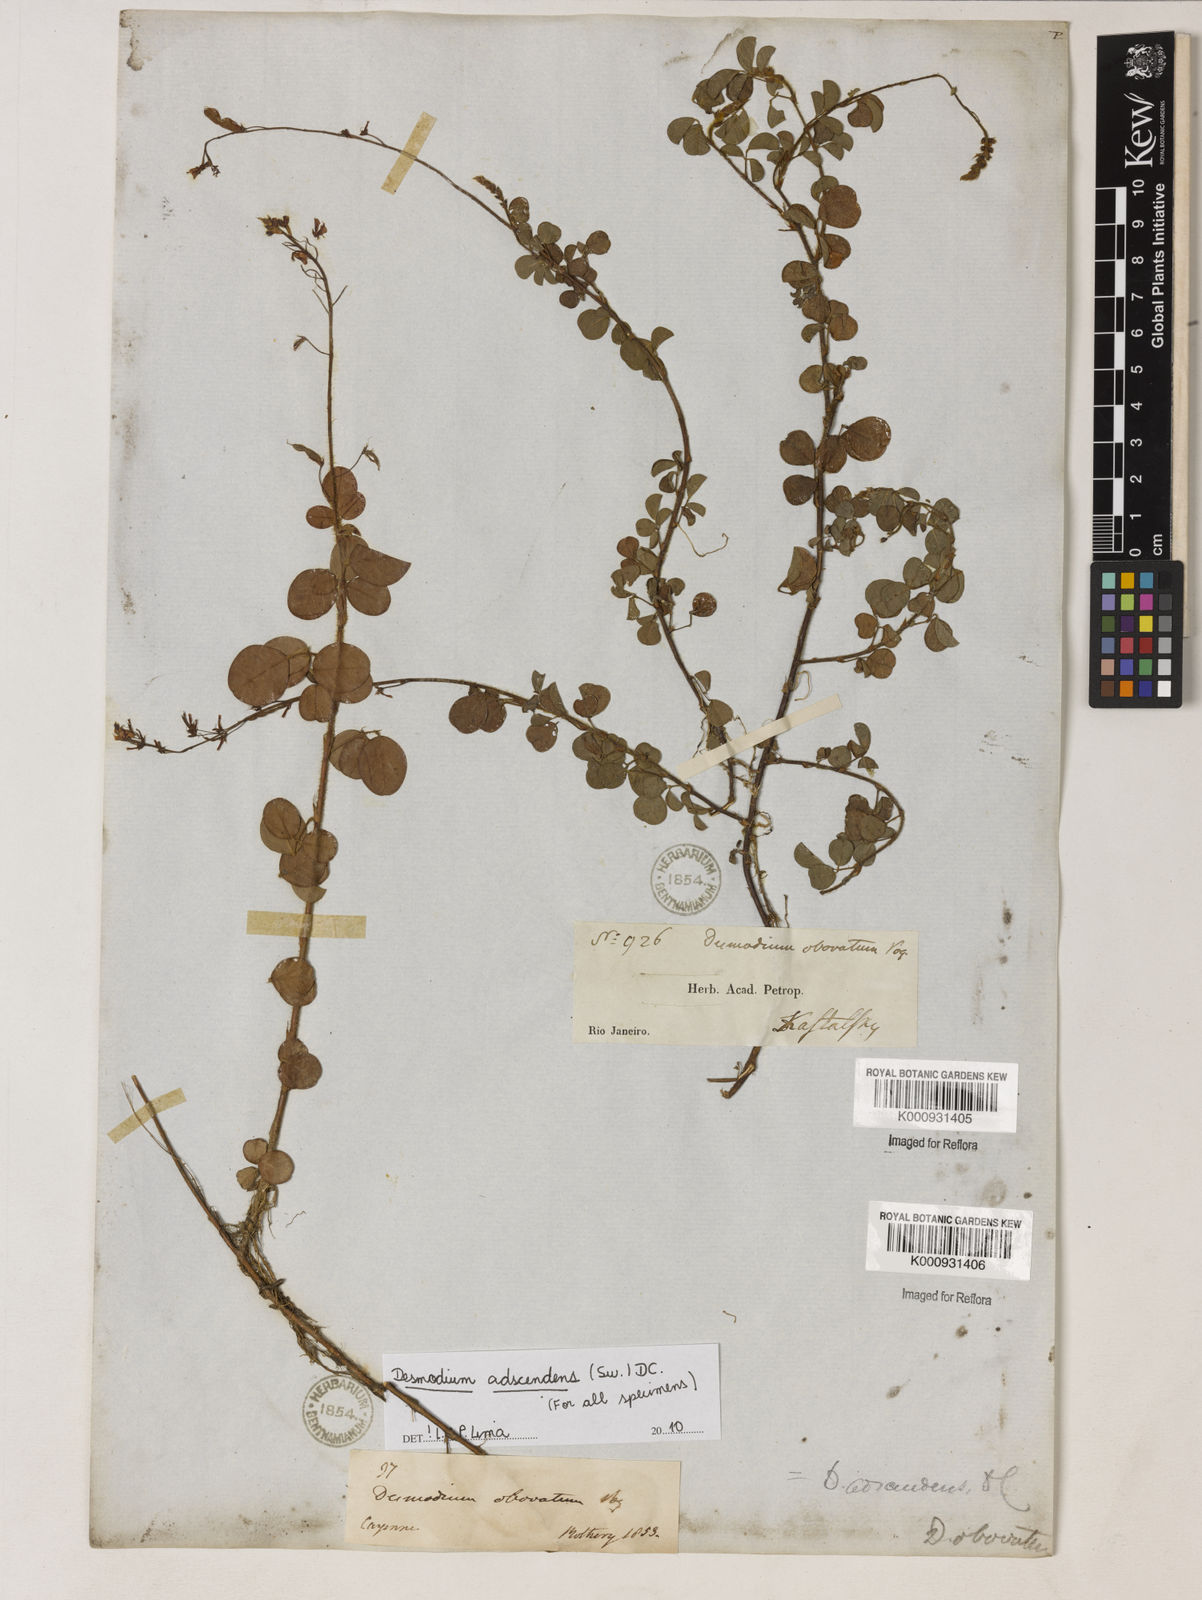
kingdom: Plantae
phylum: Tracheophyta
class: Magnoliopsida
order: Fabales
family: Fabaceae
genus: Grona
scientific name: Grona adscendens
